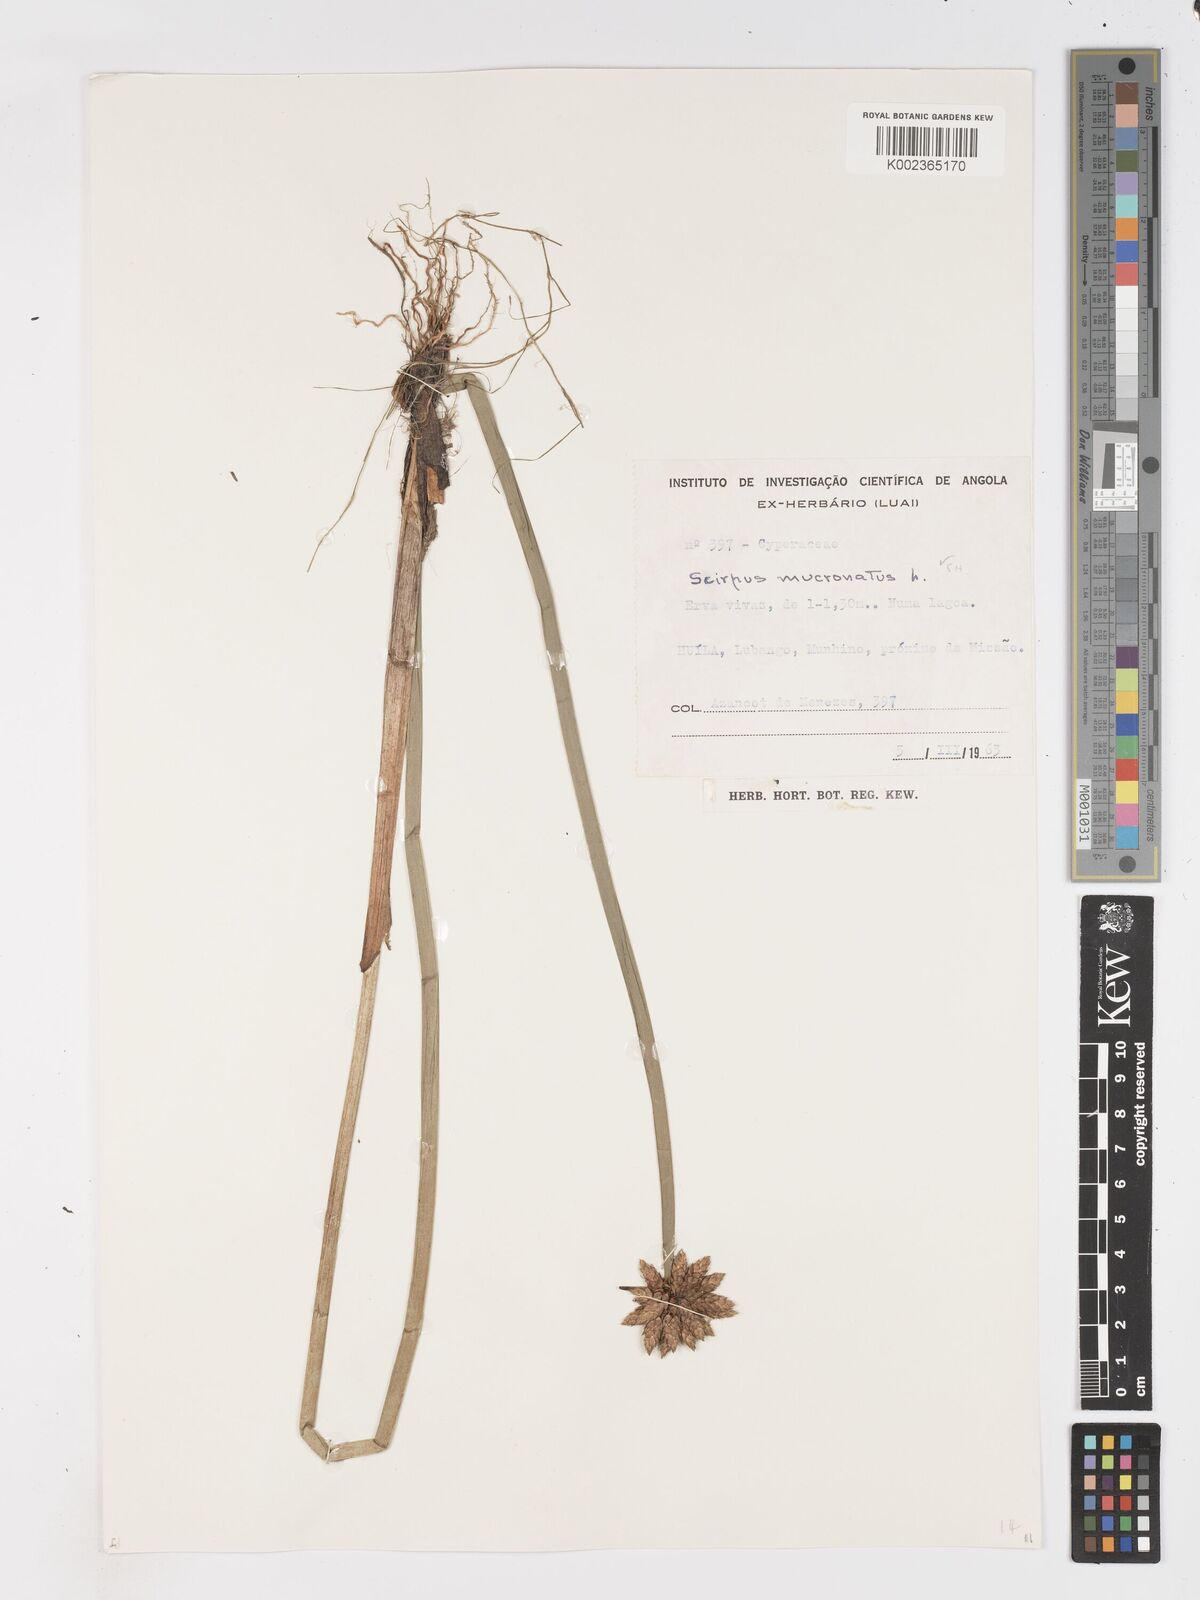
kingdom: Plantae
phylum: Tracheophyta
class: Liliopsida
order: Poales
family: Cyperaceae
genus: Schoenoplectiella
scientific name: Schoenoplectiella mucronata
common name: Bog bulrush
